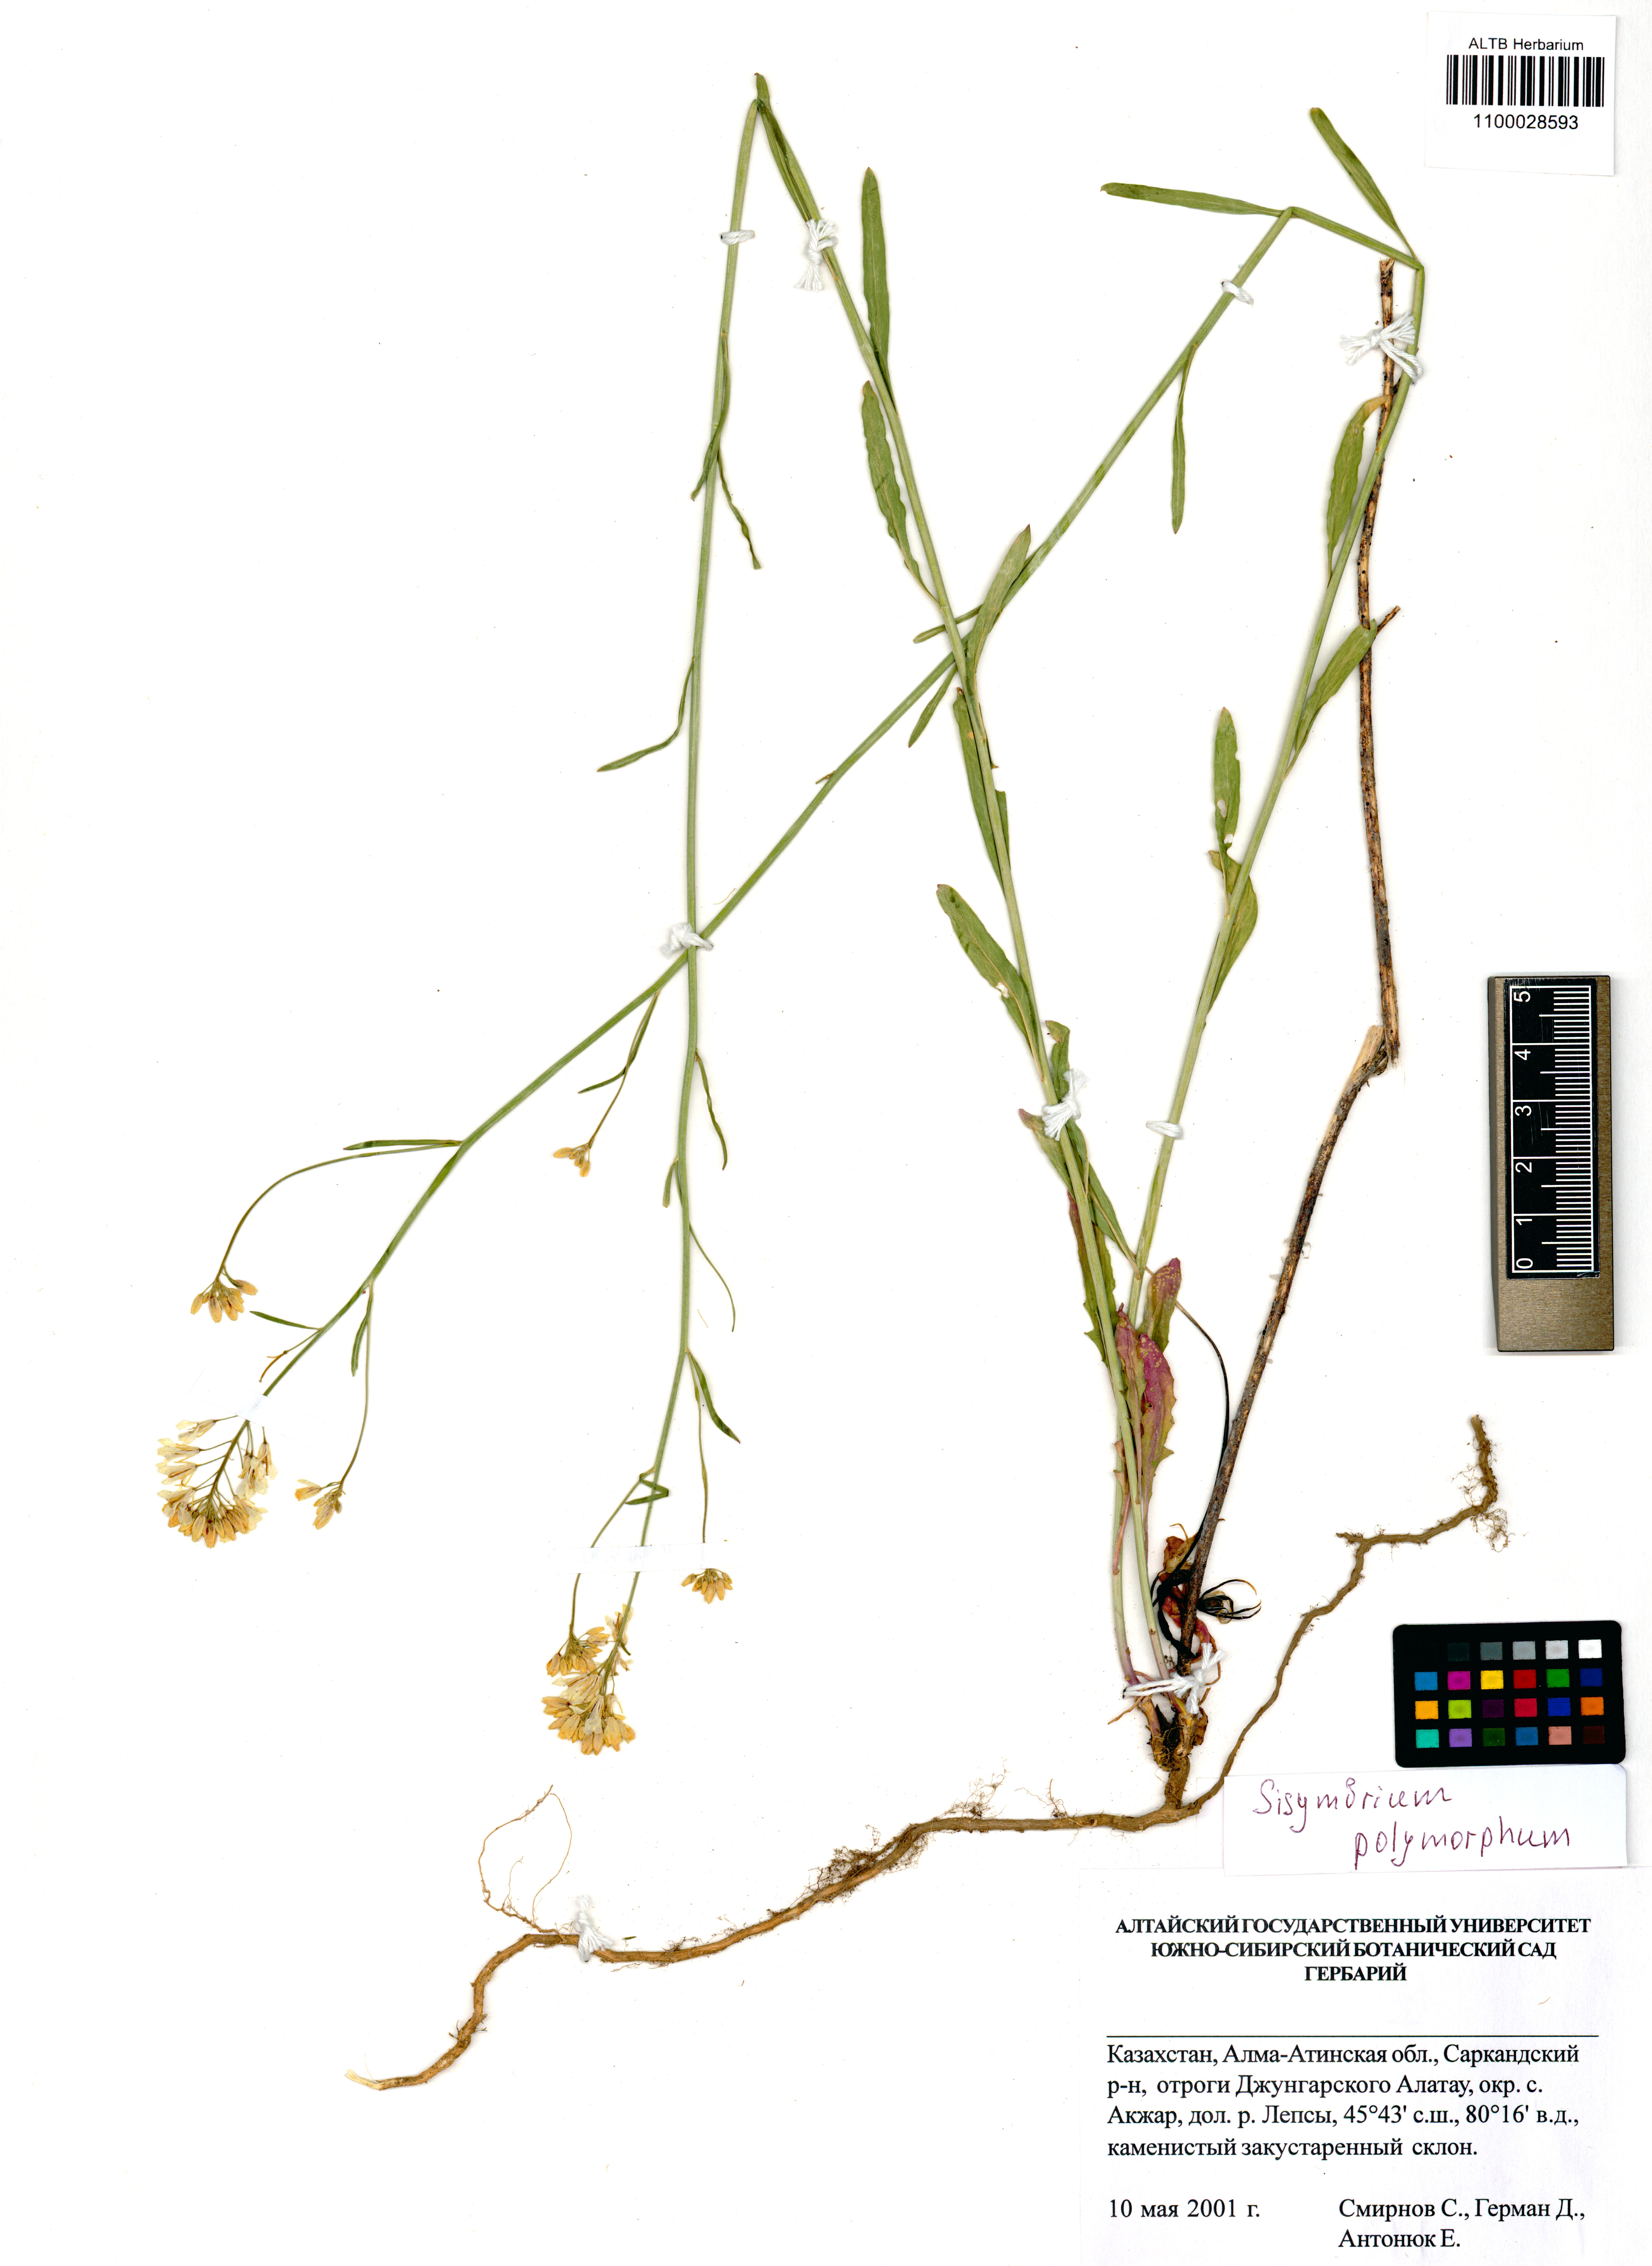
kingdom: Plantae
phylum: Tracheophyta
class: Magnoliopsida
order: Brassicales
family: Brassicaceae
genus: Sisymbrium
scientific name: Sisymbrium polymorphum
